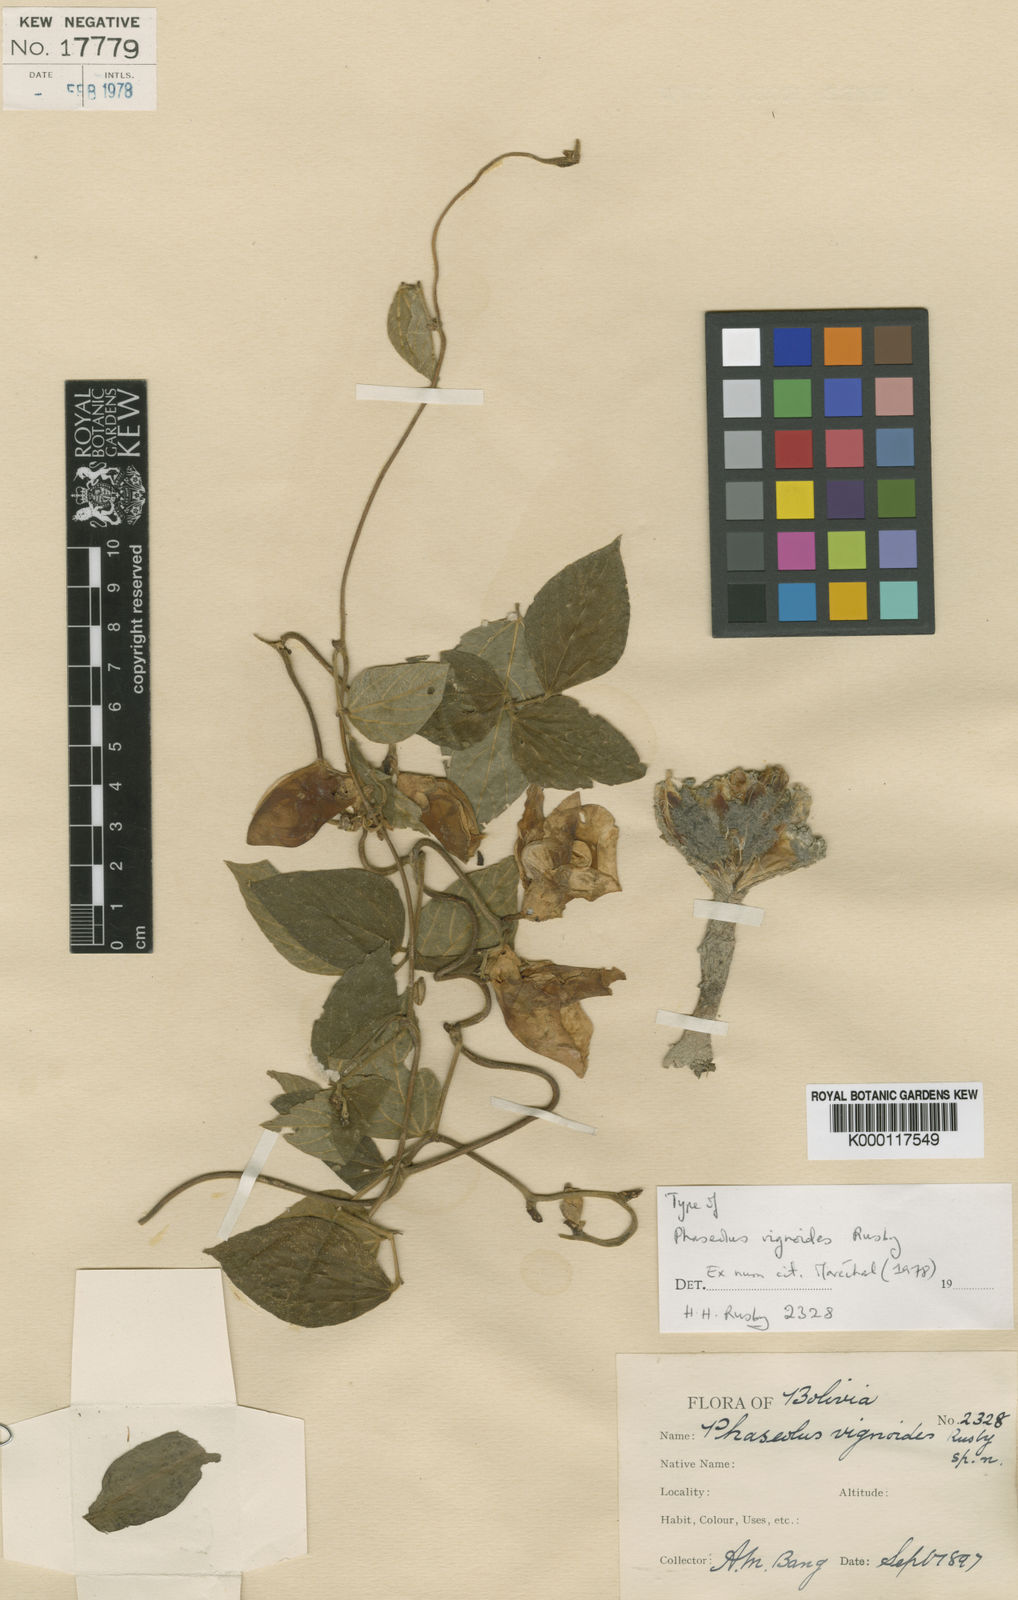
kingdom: Plantae
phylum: Tracheophyta
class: Magnoliopsida
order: Fabales
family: Fabaceae
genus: Condylostylis
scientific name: Condylostylis vignoides
